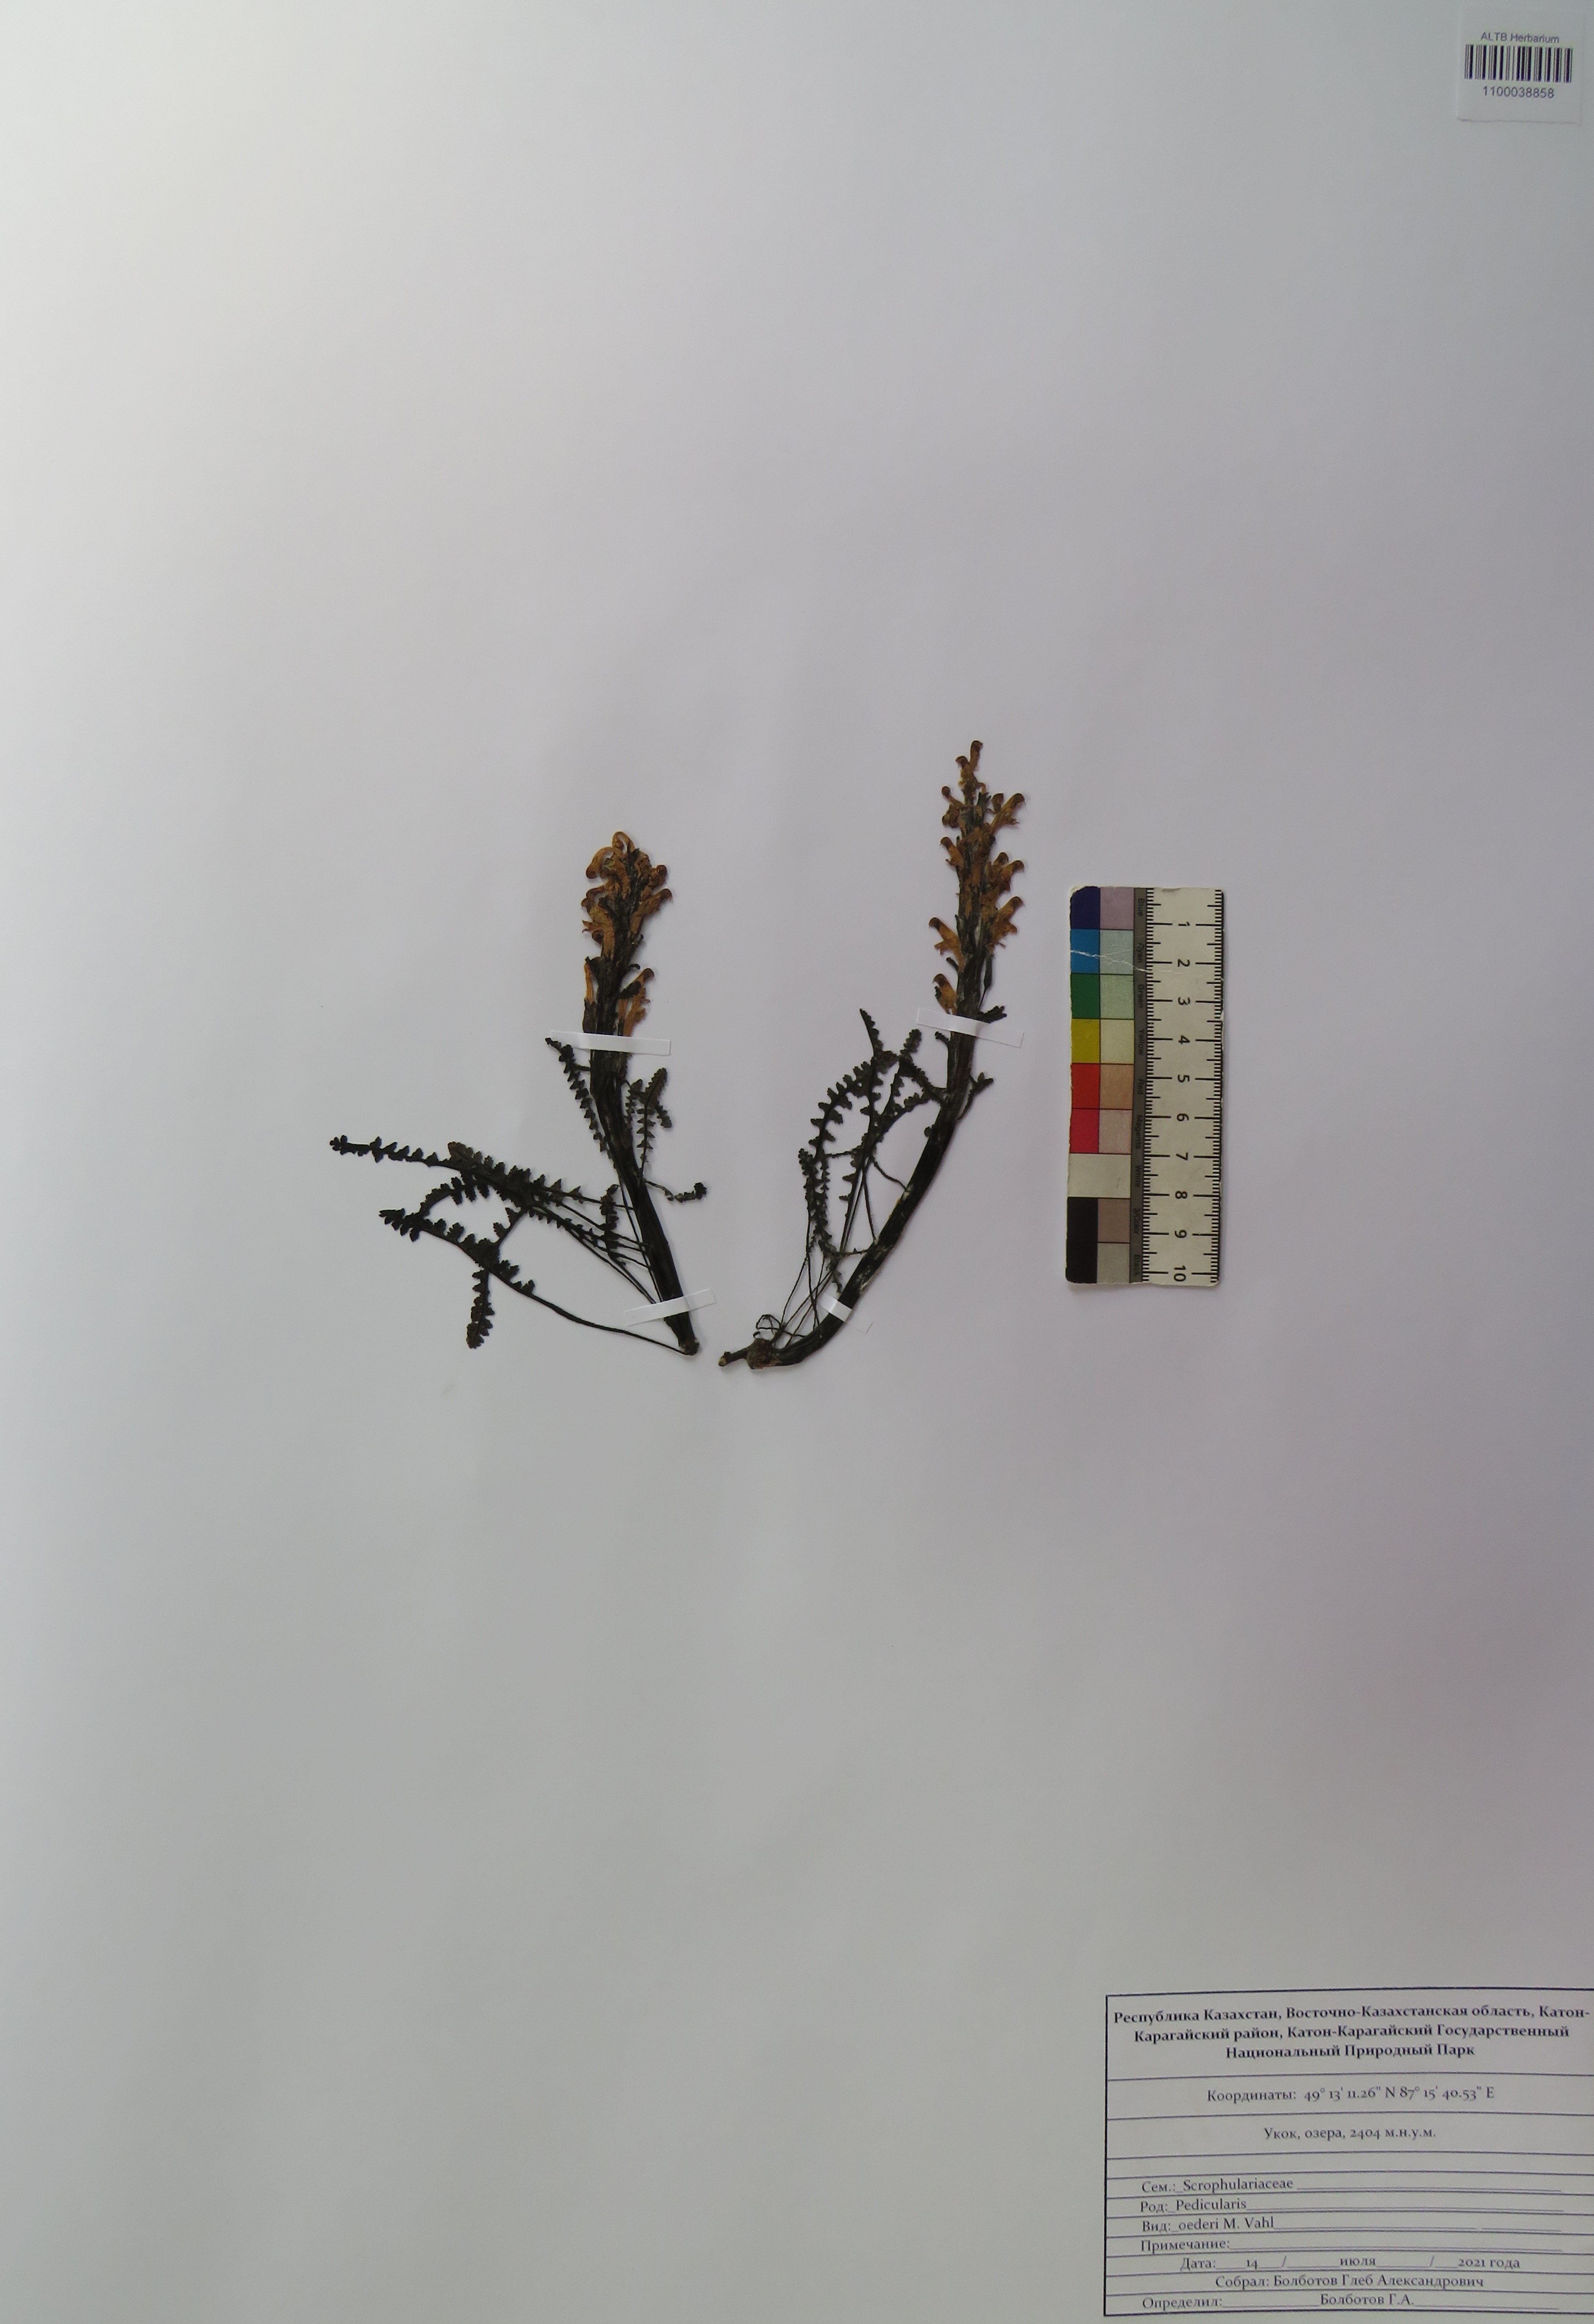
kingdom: Plantae
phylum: Tracheophyta
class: Magnoliopsida
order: Lamiales
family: Orobanchaceae
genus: Pedicularis
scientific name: Pedicularis oederi
